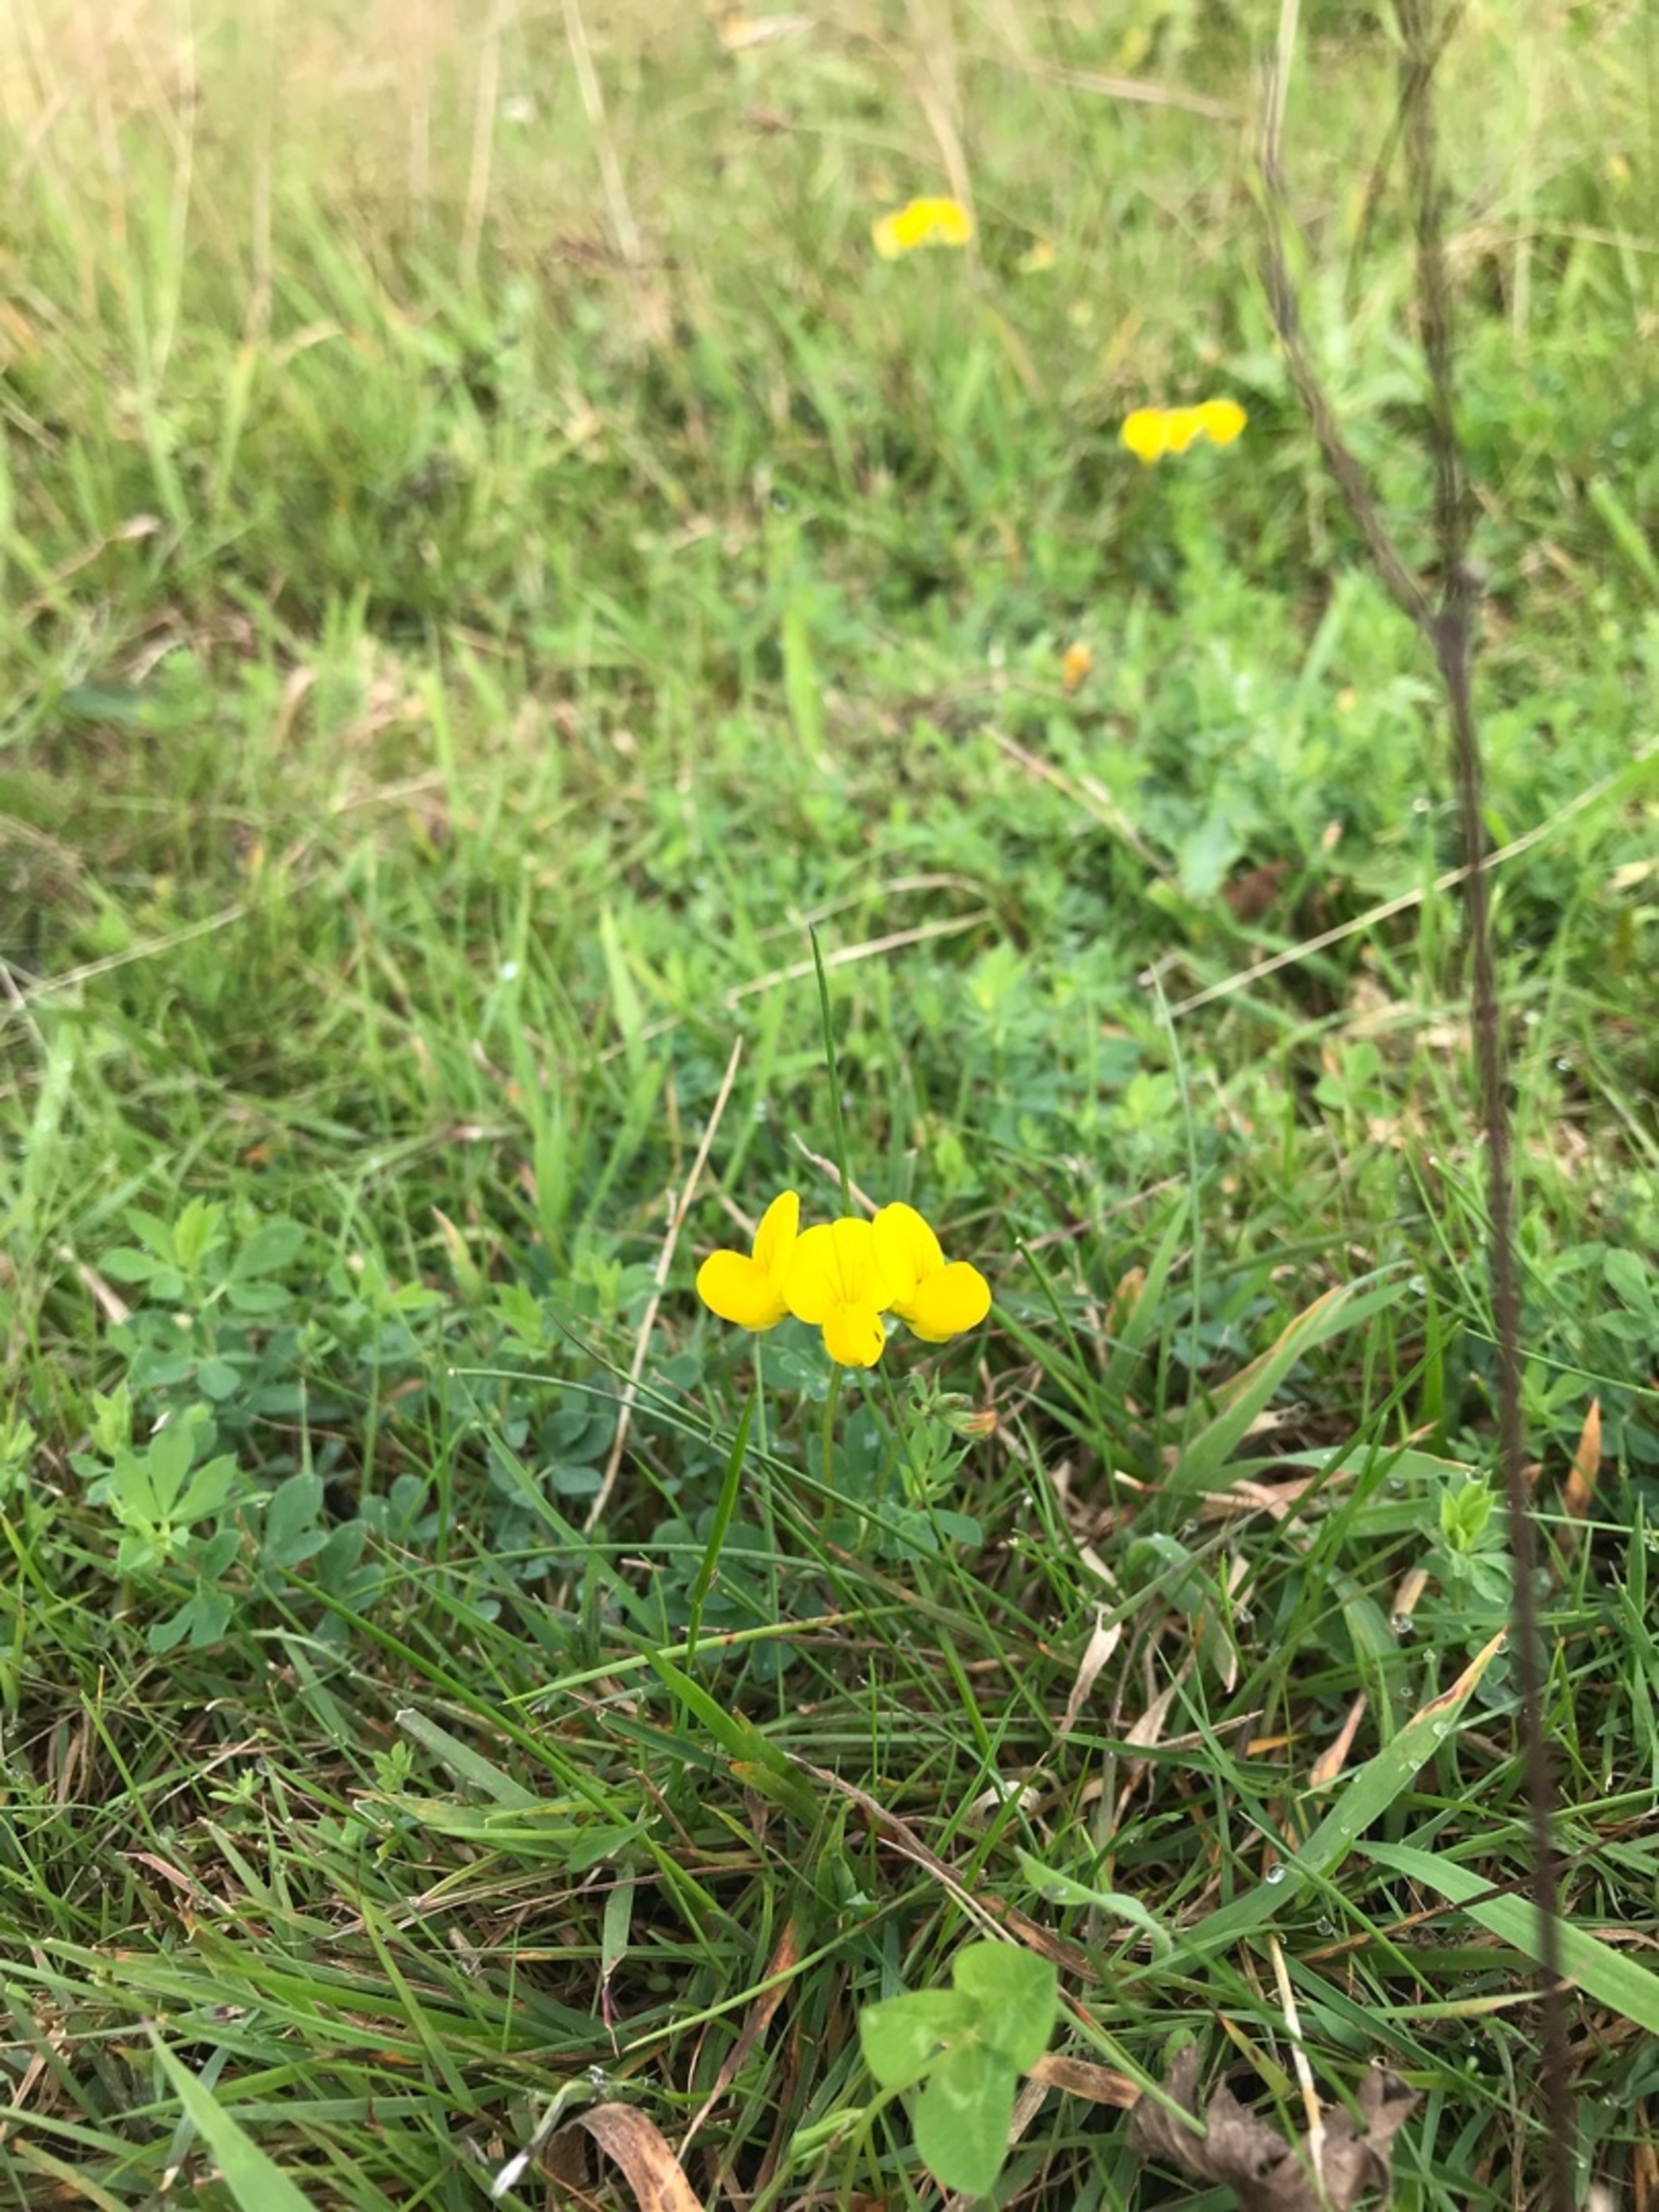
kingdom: Plantae
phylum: Tracheophyta
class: Magnoliopsida
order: Fabales
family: Fabaceae
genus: Lotus
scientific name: Lotus corniculatus
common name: Almindelig kællingetand
